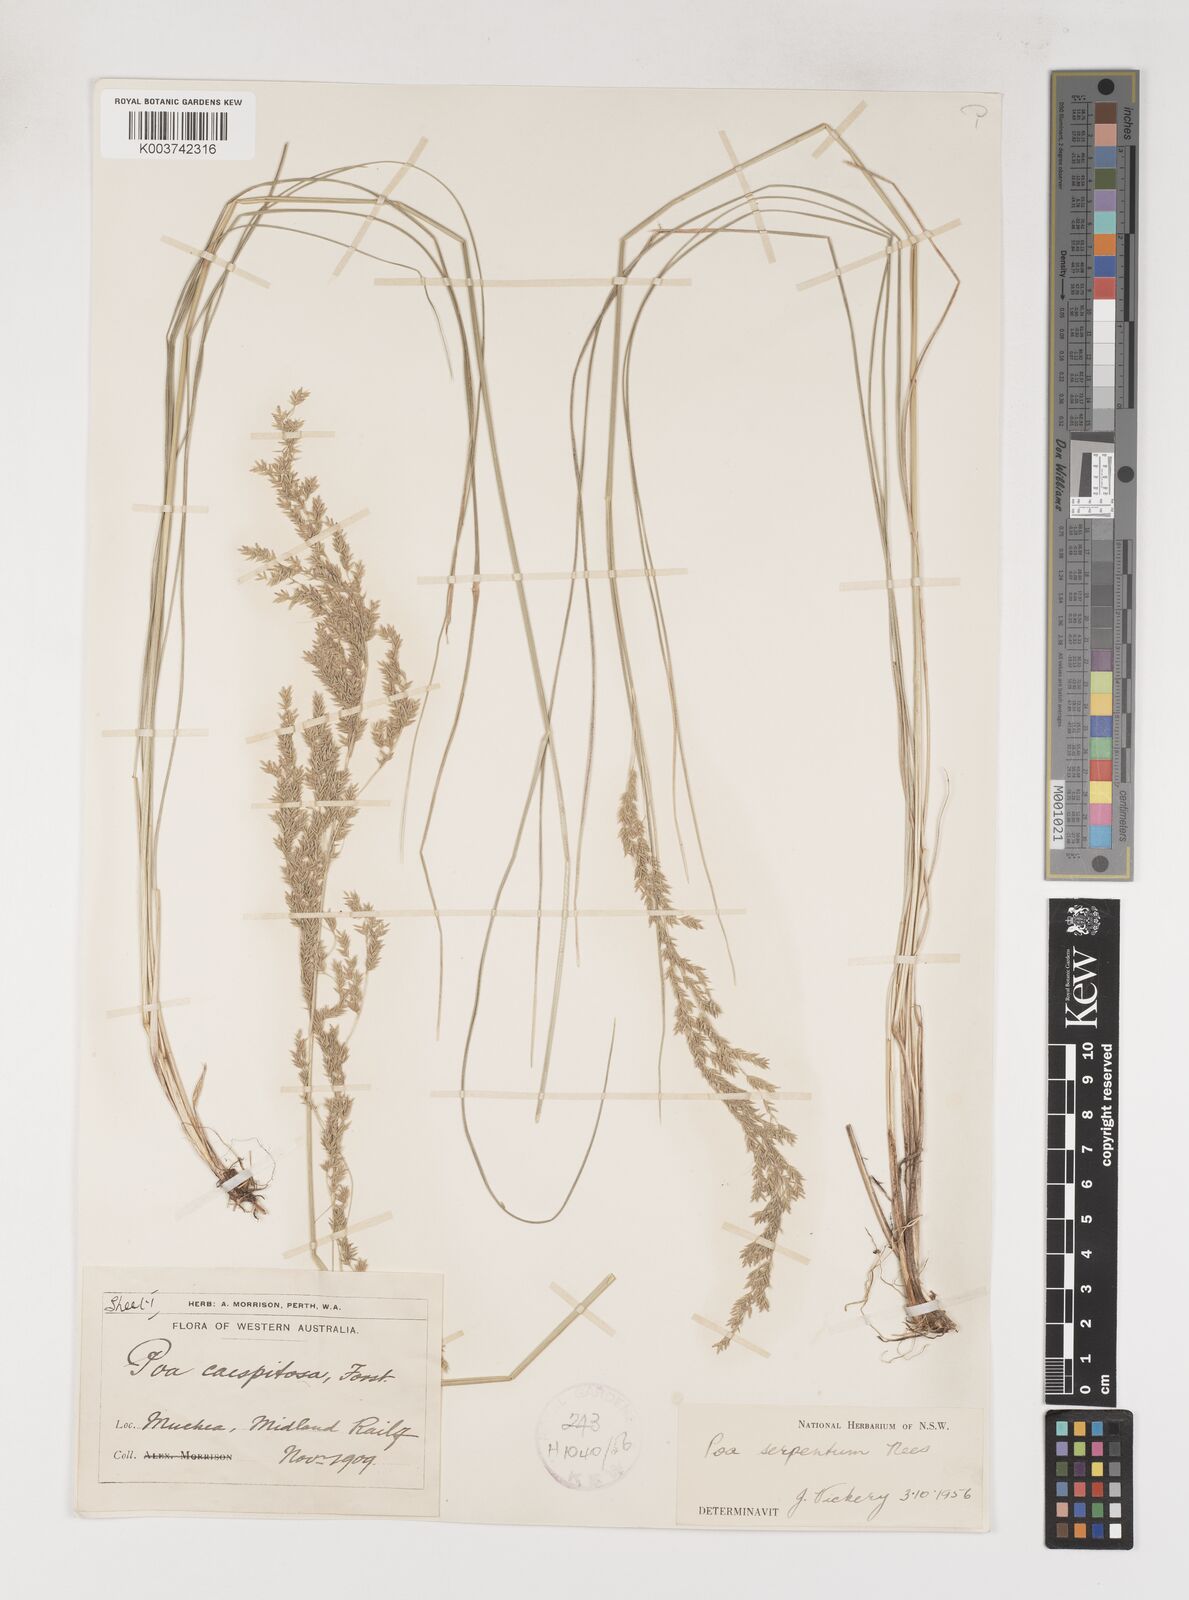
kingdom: Plantae
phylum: Tracheophyta
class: Liliopsida
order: Poales
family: Poaceae
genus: Poa
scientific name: Poa porphyroclados
